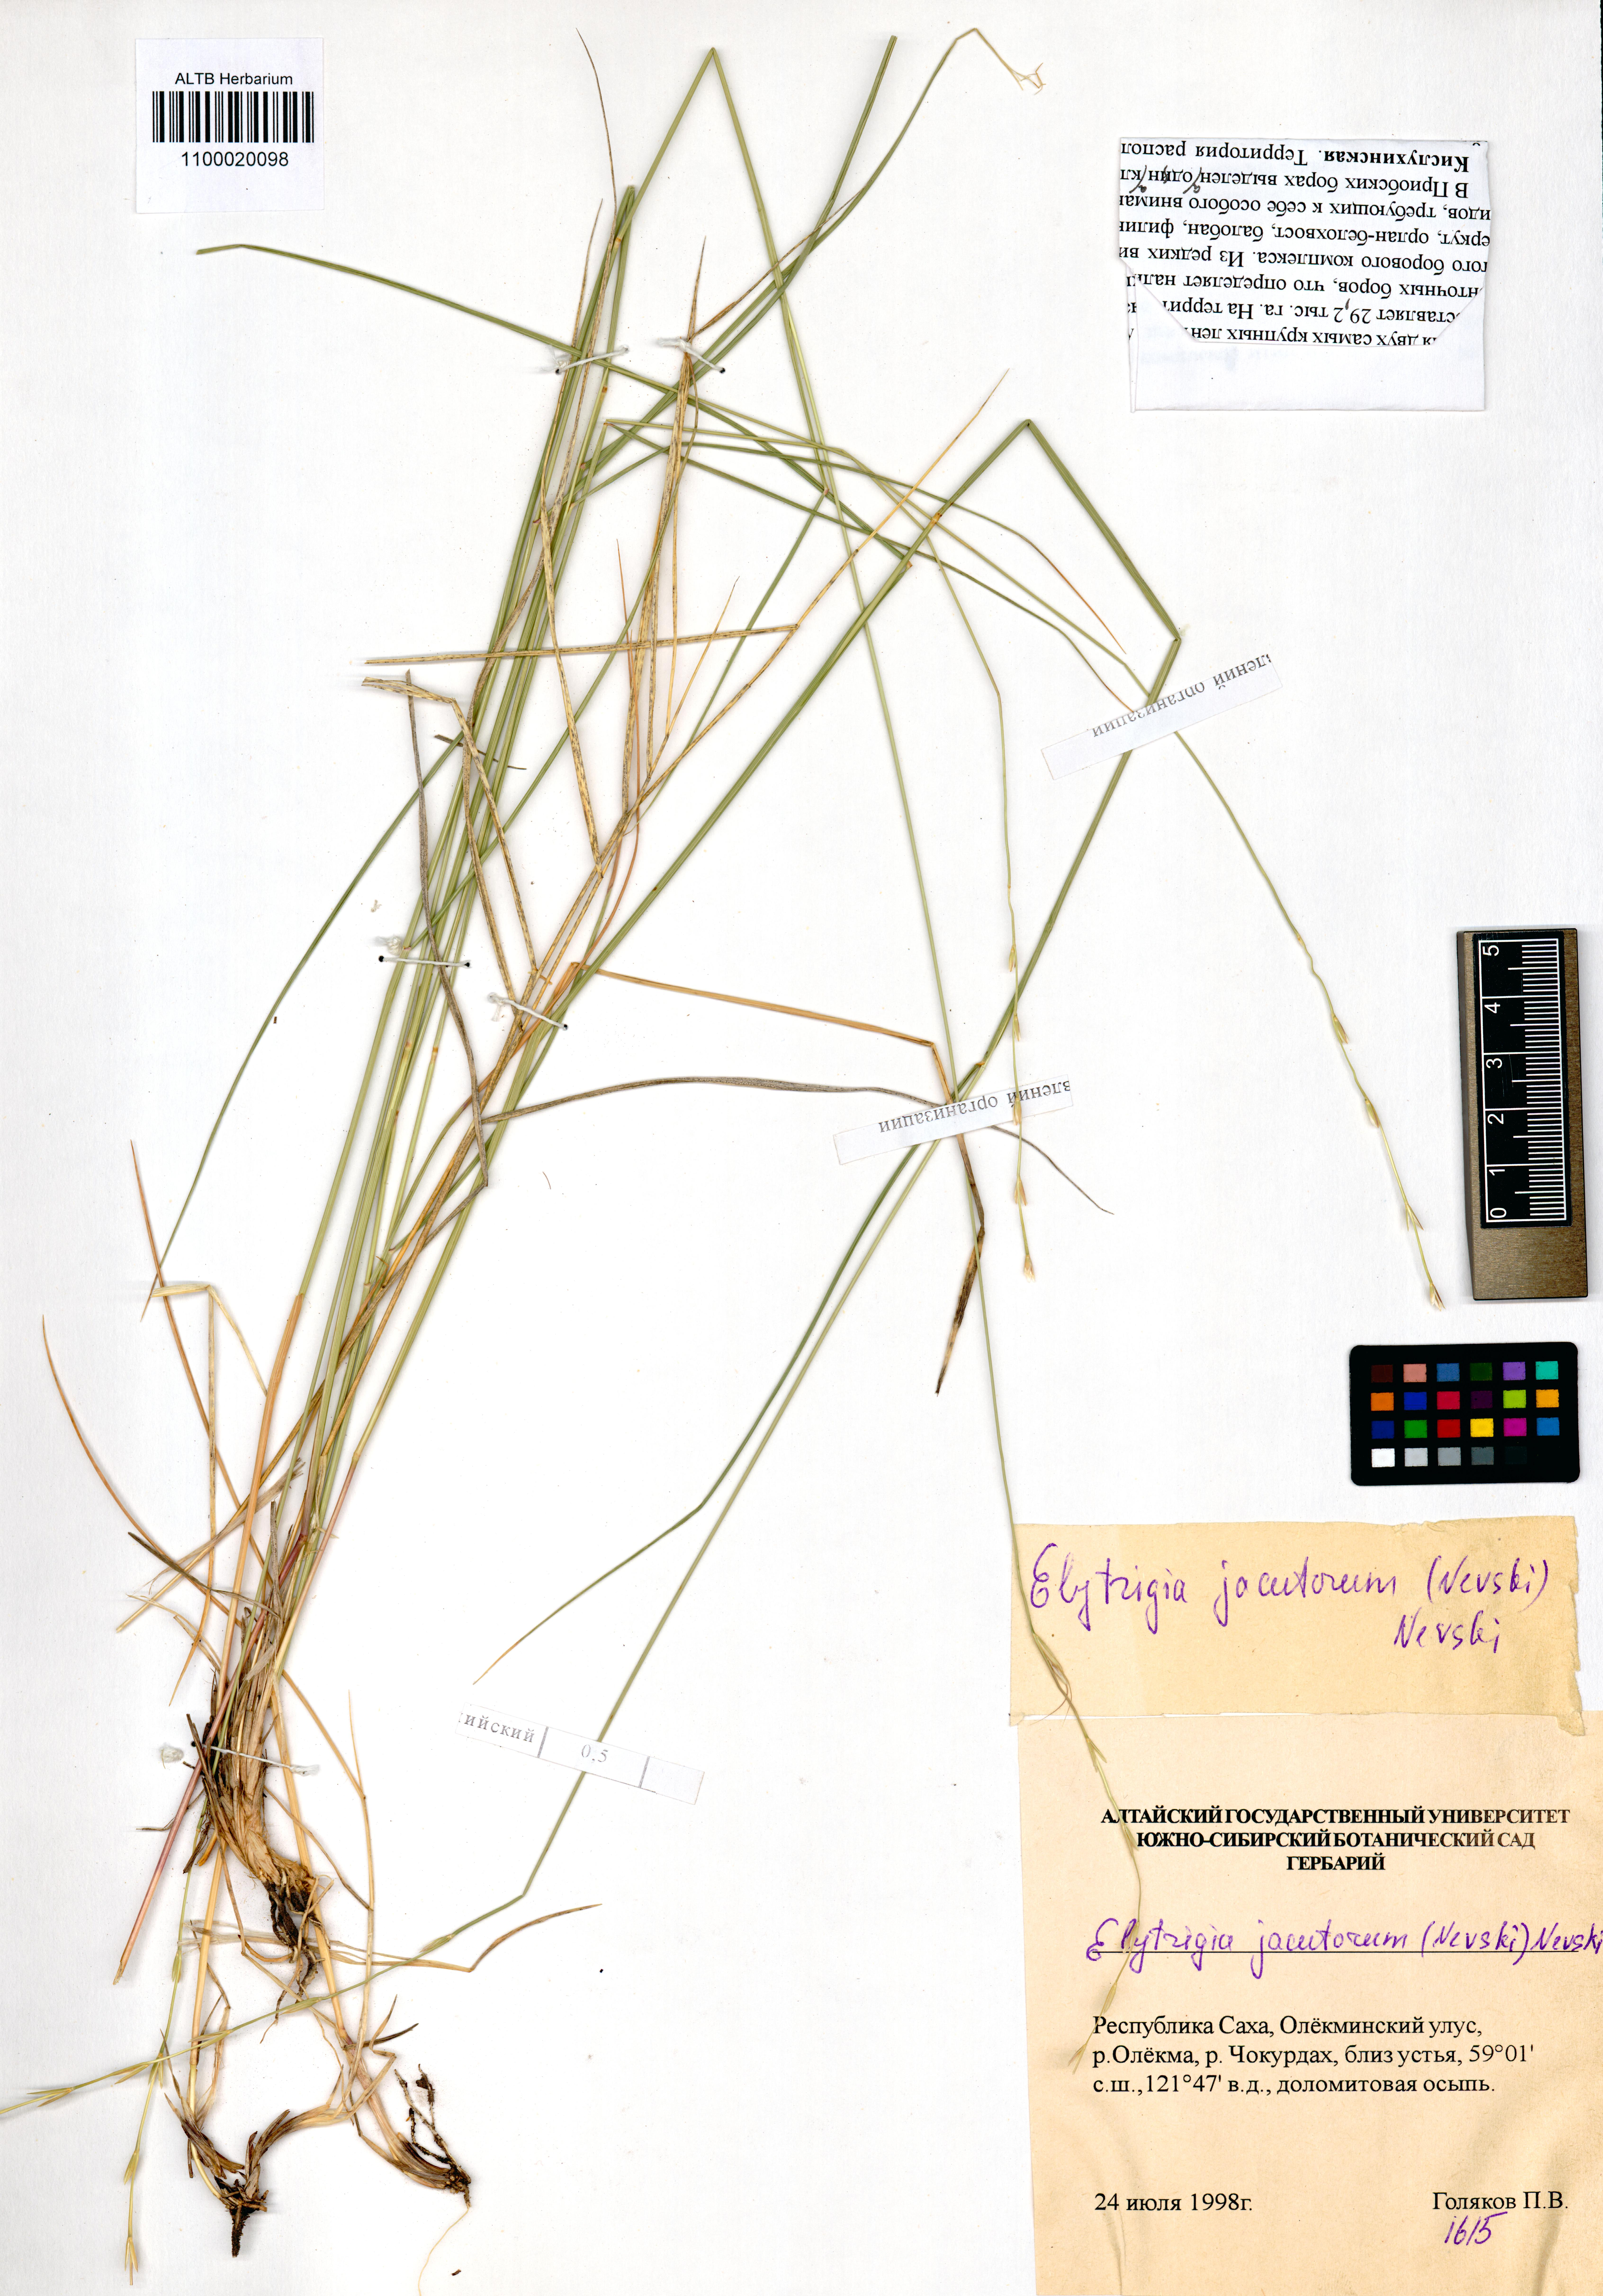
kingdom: Plantae
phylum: Tracheophyta
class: Liliopsida
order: Poales
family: Poaceae
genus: Pseudoroegneria
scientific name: Pseudoroegneria reflexiaristata
